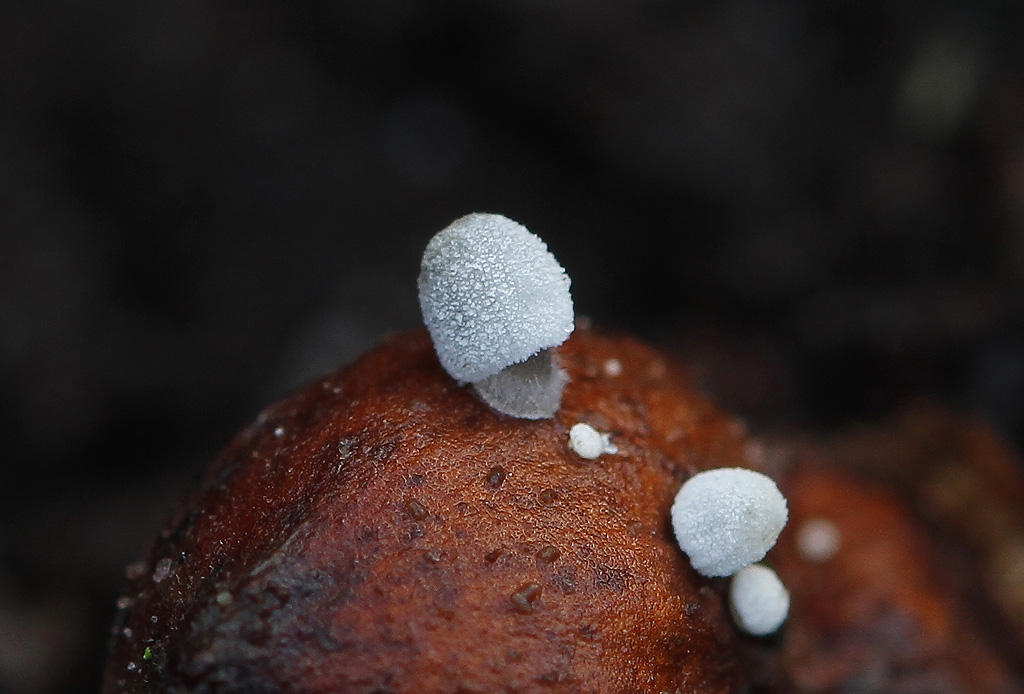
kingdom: Fungi
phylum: Basidiomycota
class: Agaricomycetes
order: Agaricales
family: Mycenaceae
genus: Mycena
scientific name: Mycena tenerrima
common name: pudret huesvamp
